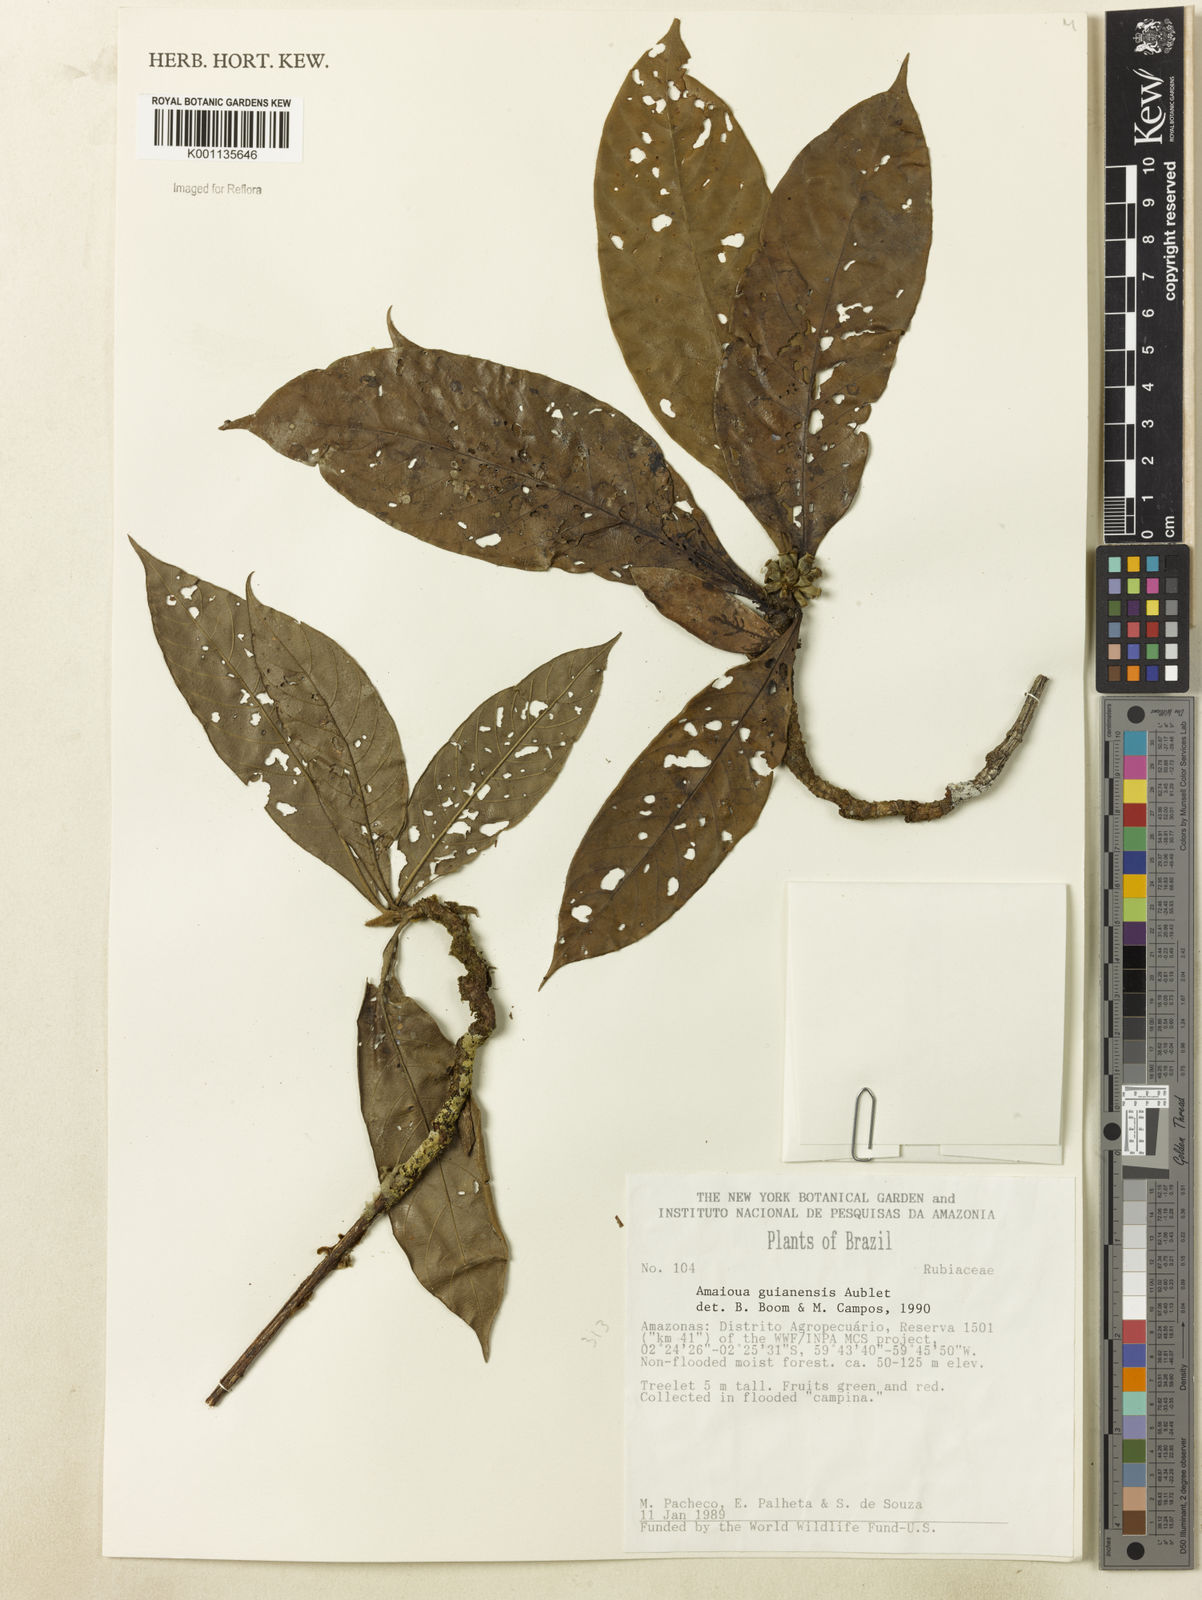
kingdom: Plantae
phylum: Tracheophyta
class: Magnoliopsida
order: Gentianales
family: Rubiaceae
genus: Amaioua
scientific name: Amaioua guianensis
